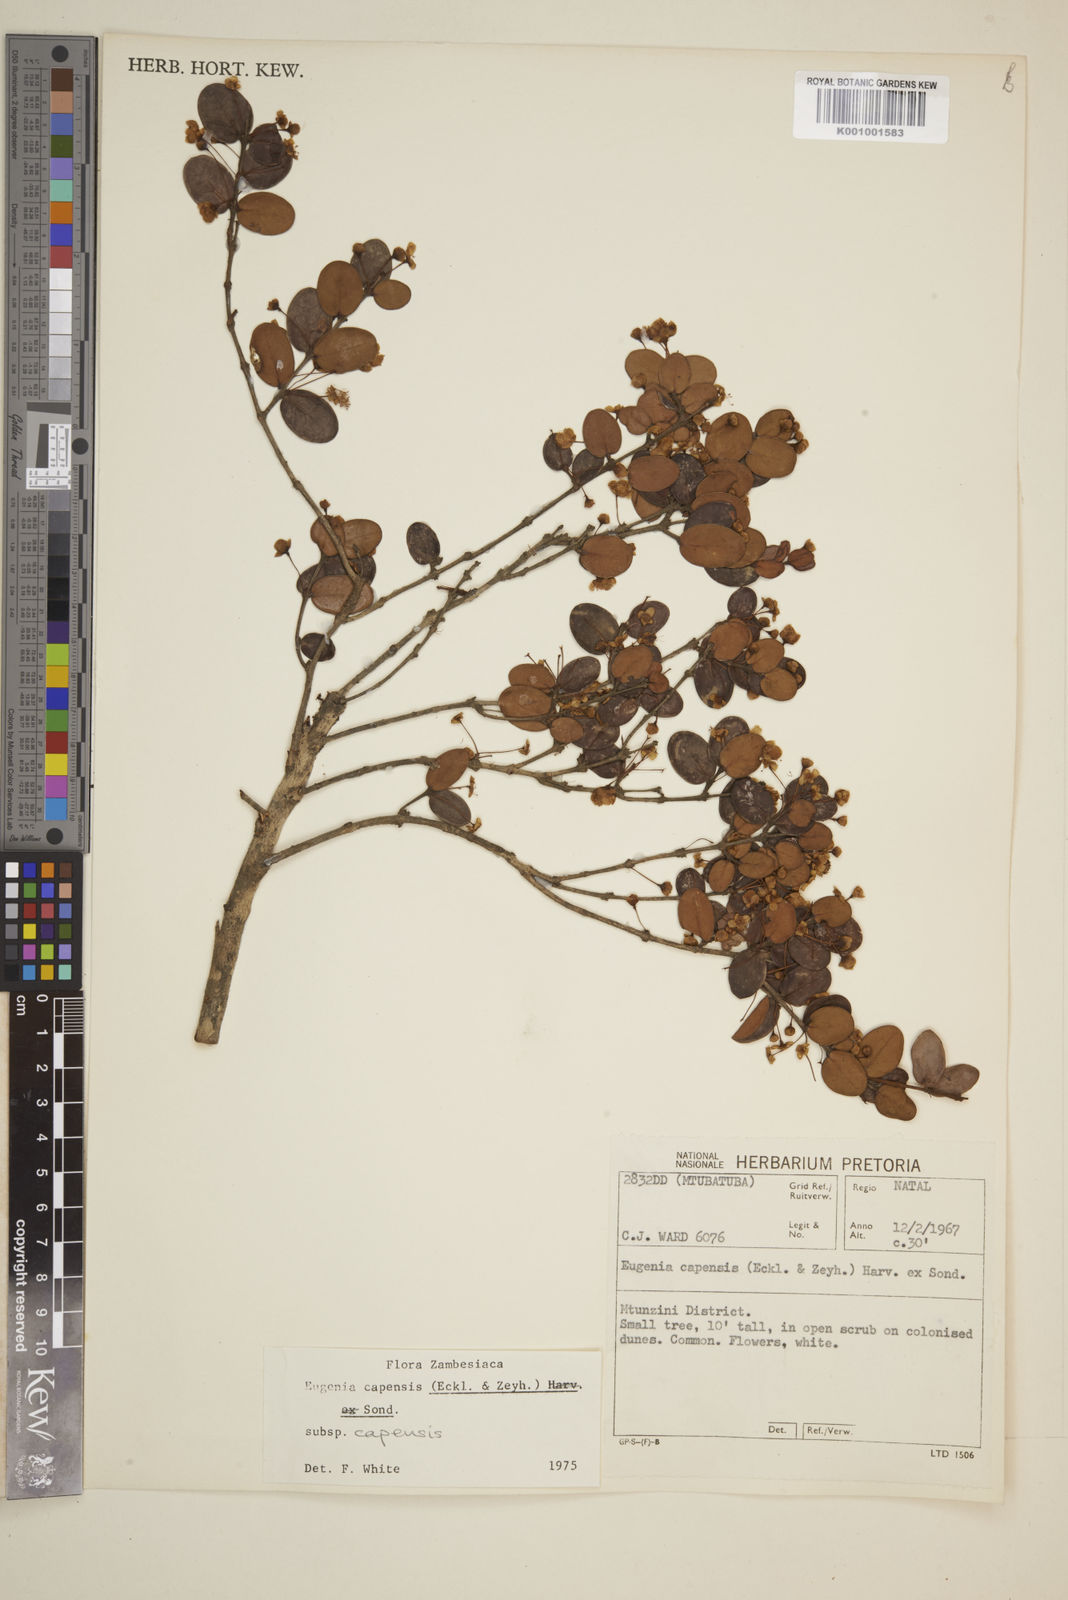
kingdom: Plantae
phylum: Tracheophyta
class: Magnoliopsida
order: Myrtales
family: Myrtaceae
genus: Eugenia
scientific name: Eugenia capensis
